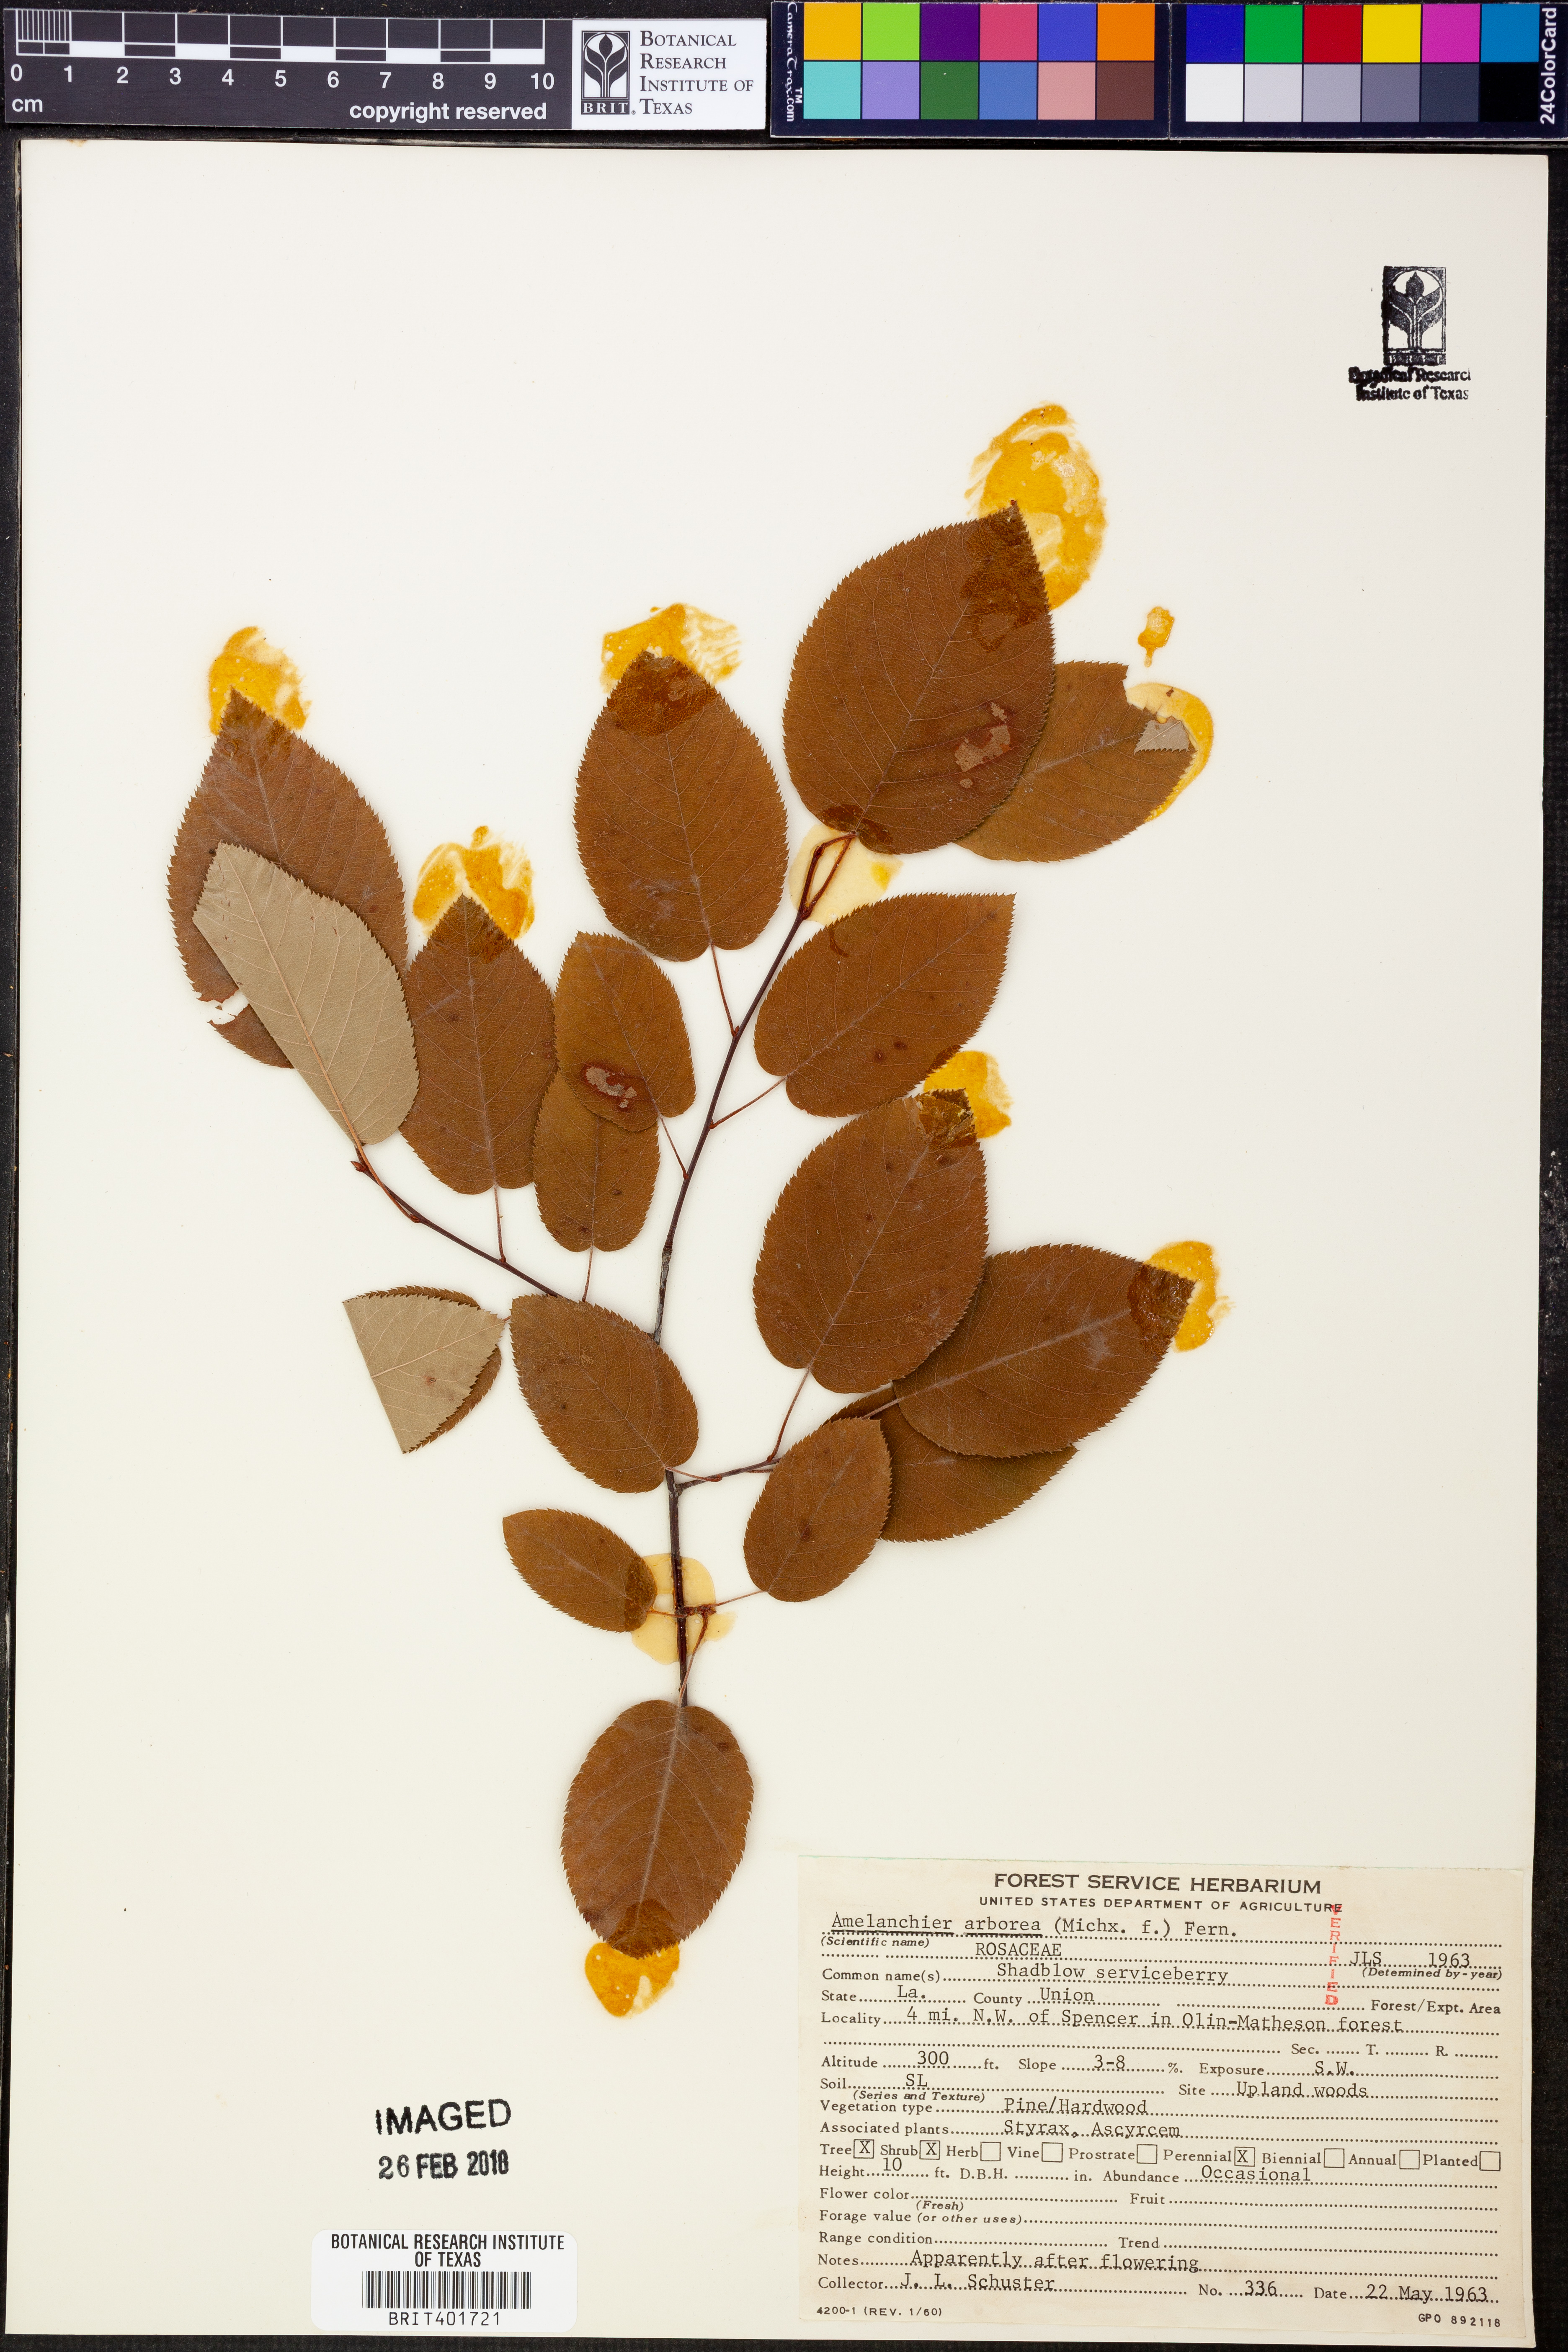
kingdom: Plantae
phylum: Tracheophyta
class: Magnoliopsida
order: Rosales
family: Rosaceae
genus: Amelanchier
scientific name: Amelanchier arborea
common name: Downy serviceberry
